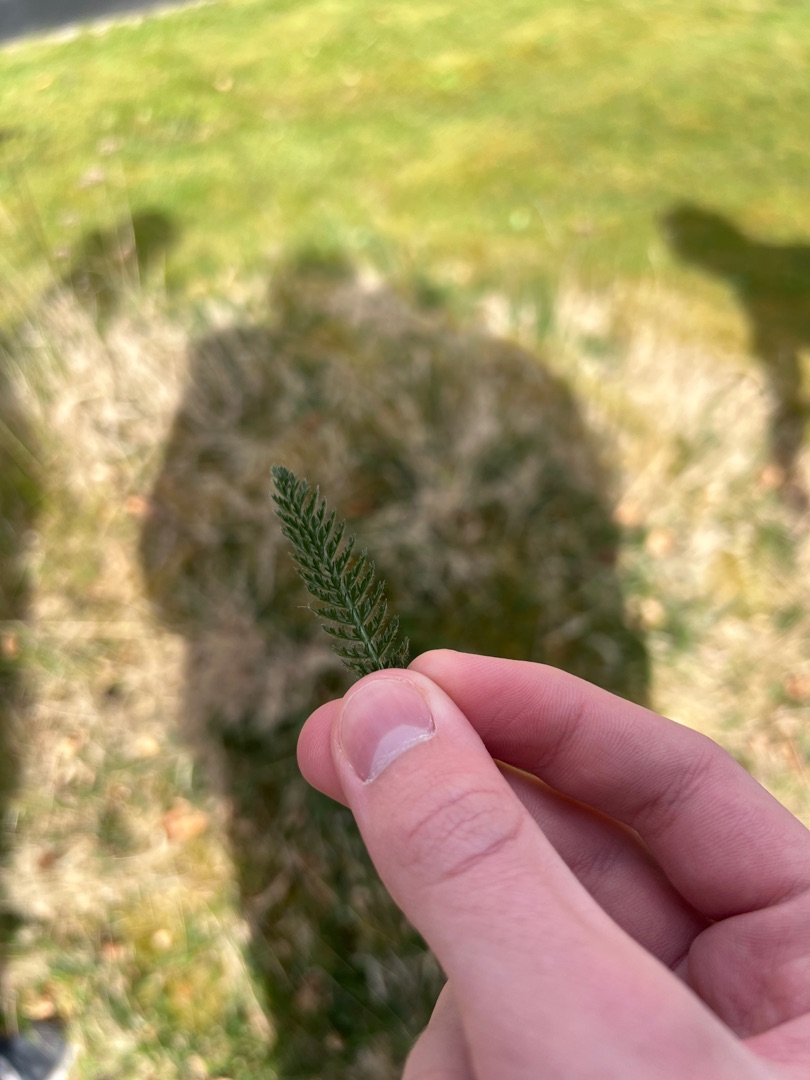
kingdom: Plantae
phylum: Tracheophyta
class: Magnoliopsida
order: Asterales
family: Asteraceae
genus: Achillea
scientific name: Achillea millefolium
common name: Almindelig røllike
